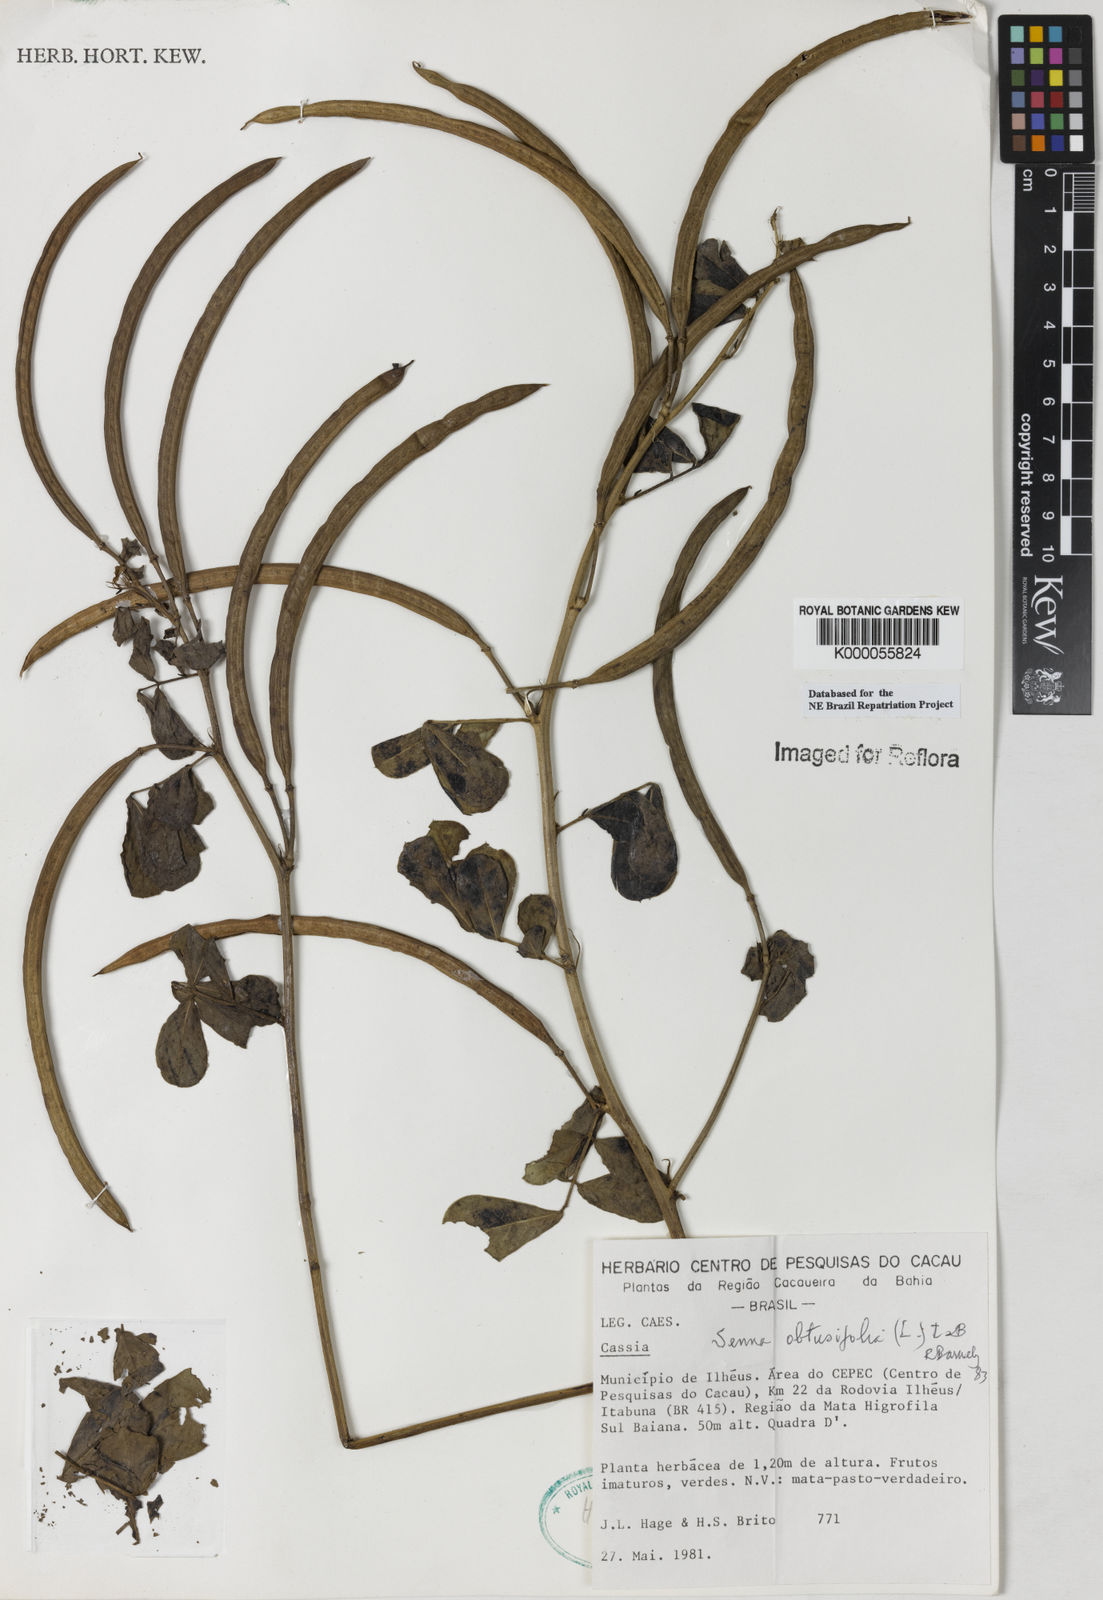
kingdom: Plantae
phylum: Tracheophyta
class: Magnoliopsida
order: Fabales
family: Fabaceae
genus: Senna
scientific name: Senna obtusifolia
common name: Java-bean
